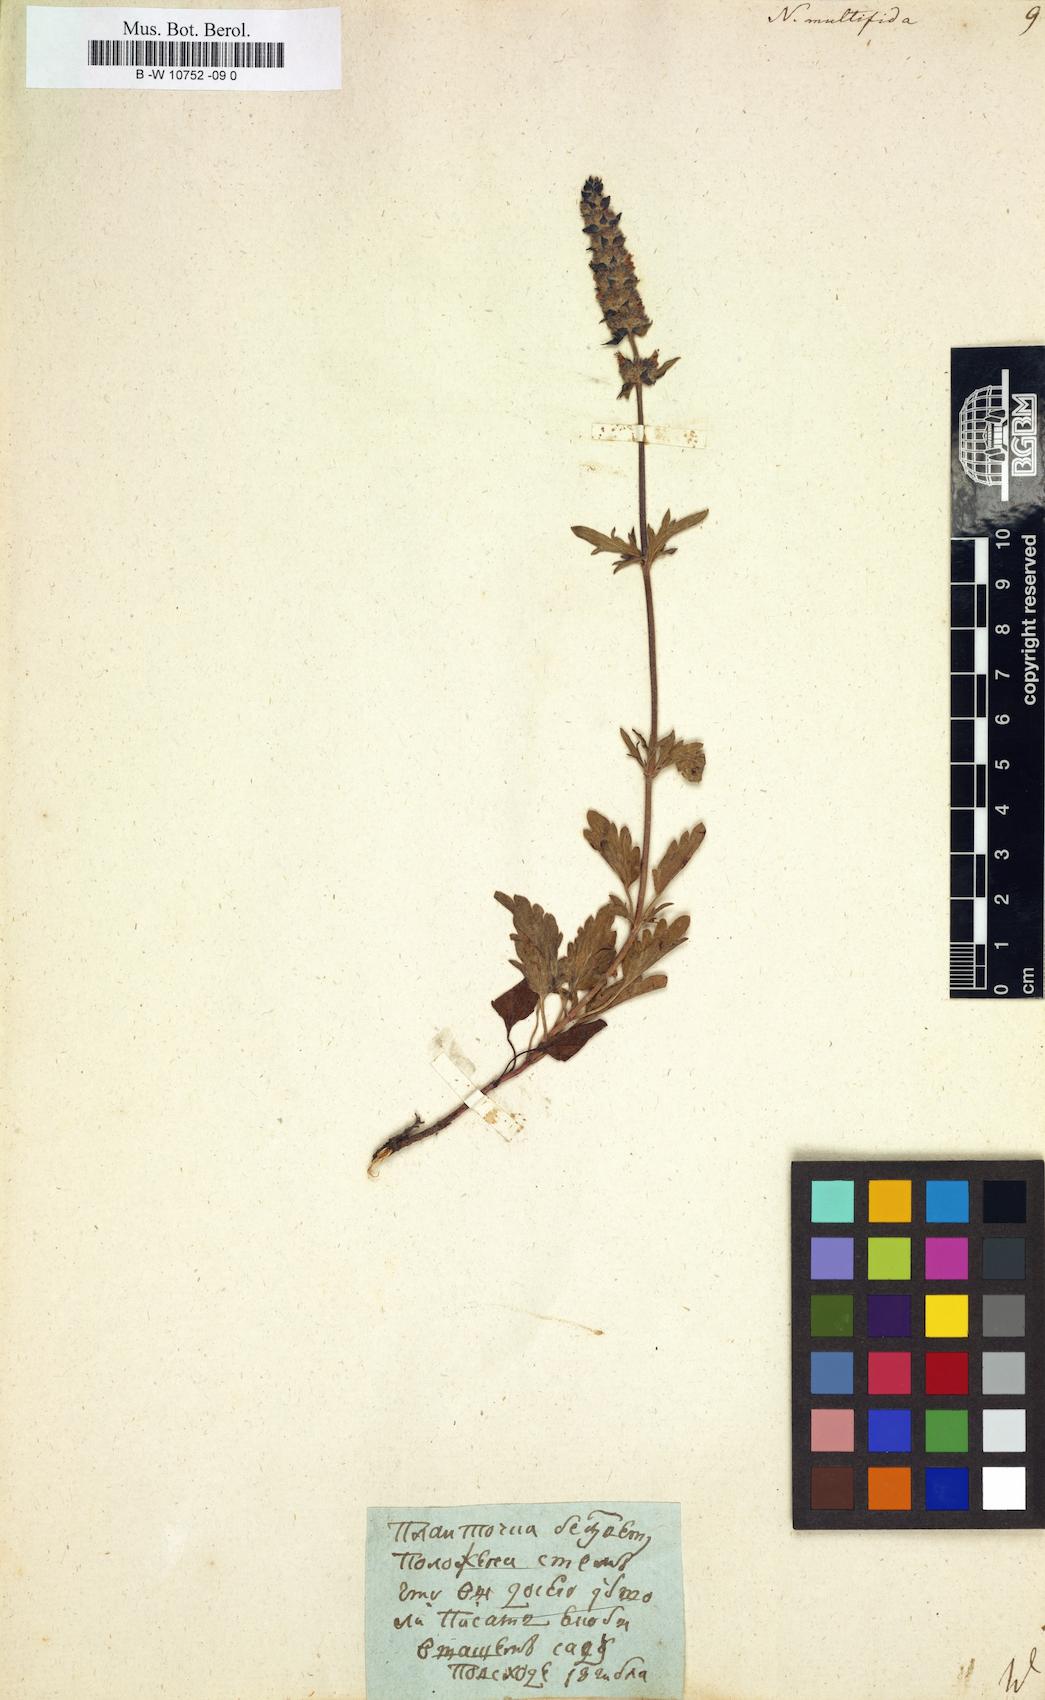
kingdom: Plantae
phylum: Tracheophyta
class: Magnoliopsida
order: Lamiales
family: Lamiaceae
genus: Nepeta
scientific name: Nepeta multifida
